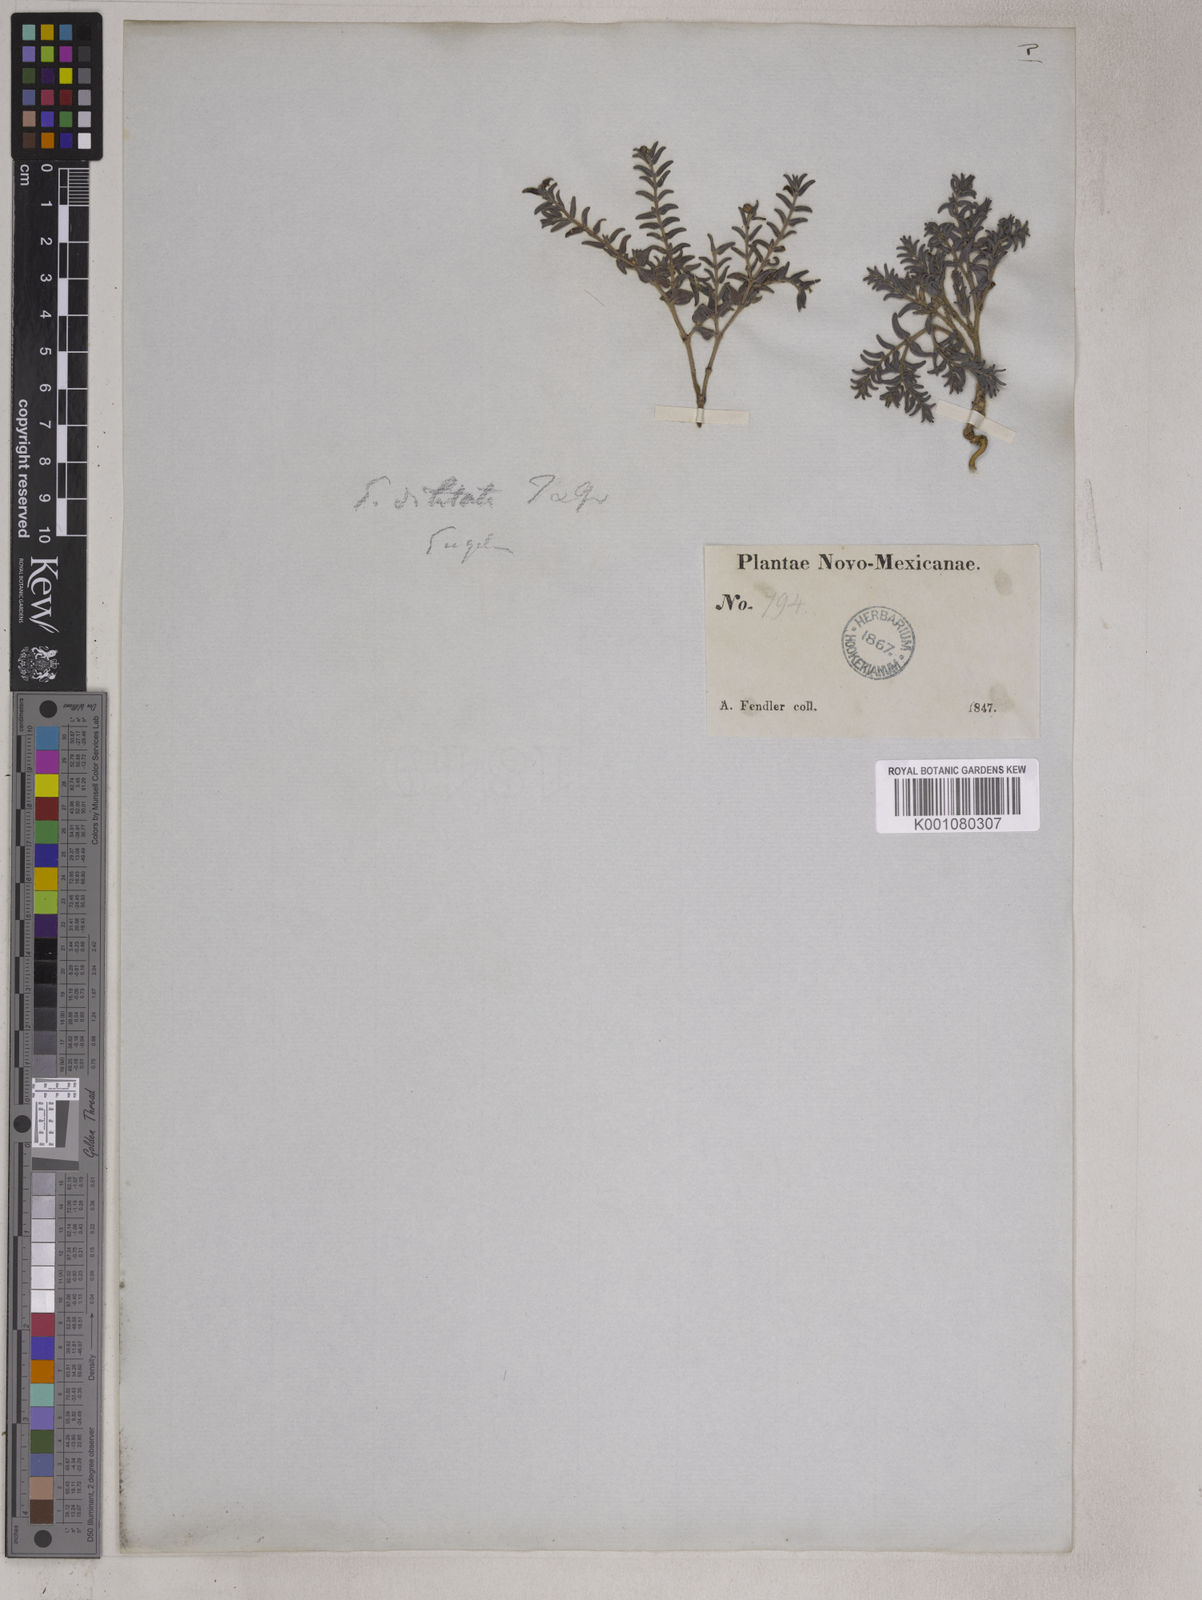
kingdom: Plantae
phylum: Tracheophyta
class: Magnoliopsida
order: Malpighiales
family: Euphorbiaceae
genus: Euphorbia
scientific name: Euphorbia lata
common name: Hoary euphorbia
